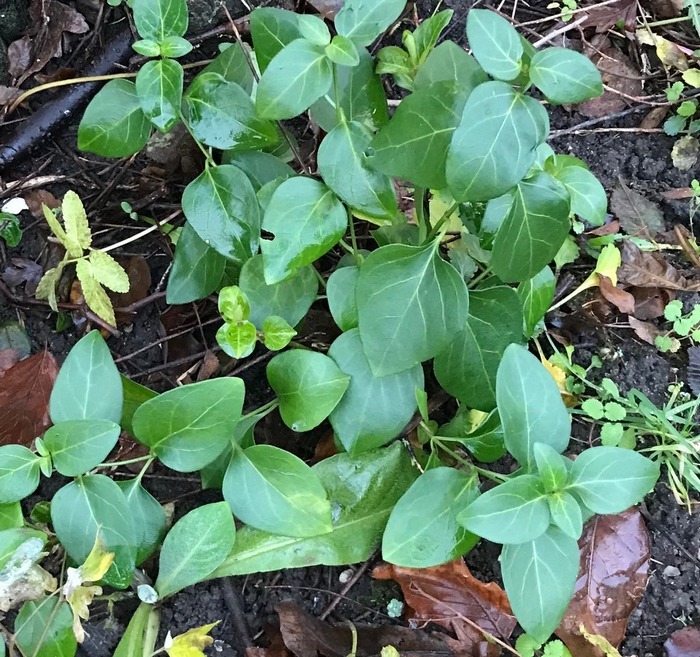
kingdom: Plantae
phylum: Tracheophyta
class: Magnoliopsida
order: Gentianales
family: Apocynaceae
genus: Vinca
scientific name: Vinca major
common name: Stor singrøn
